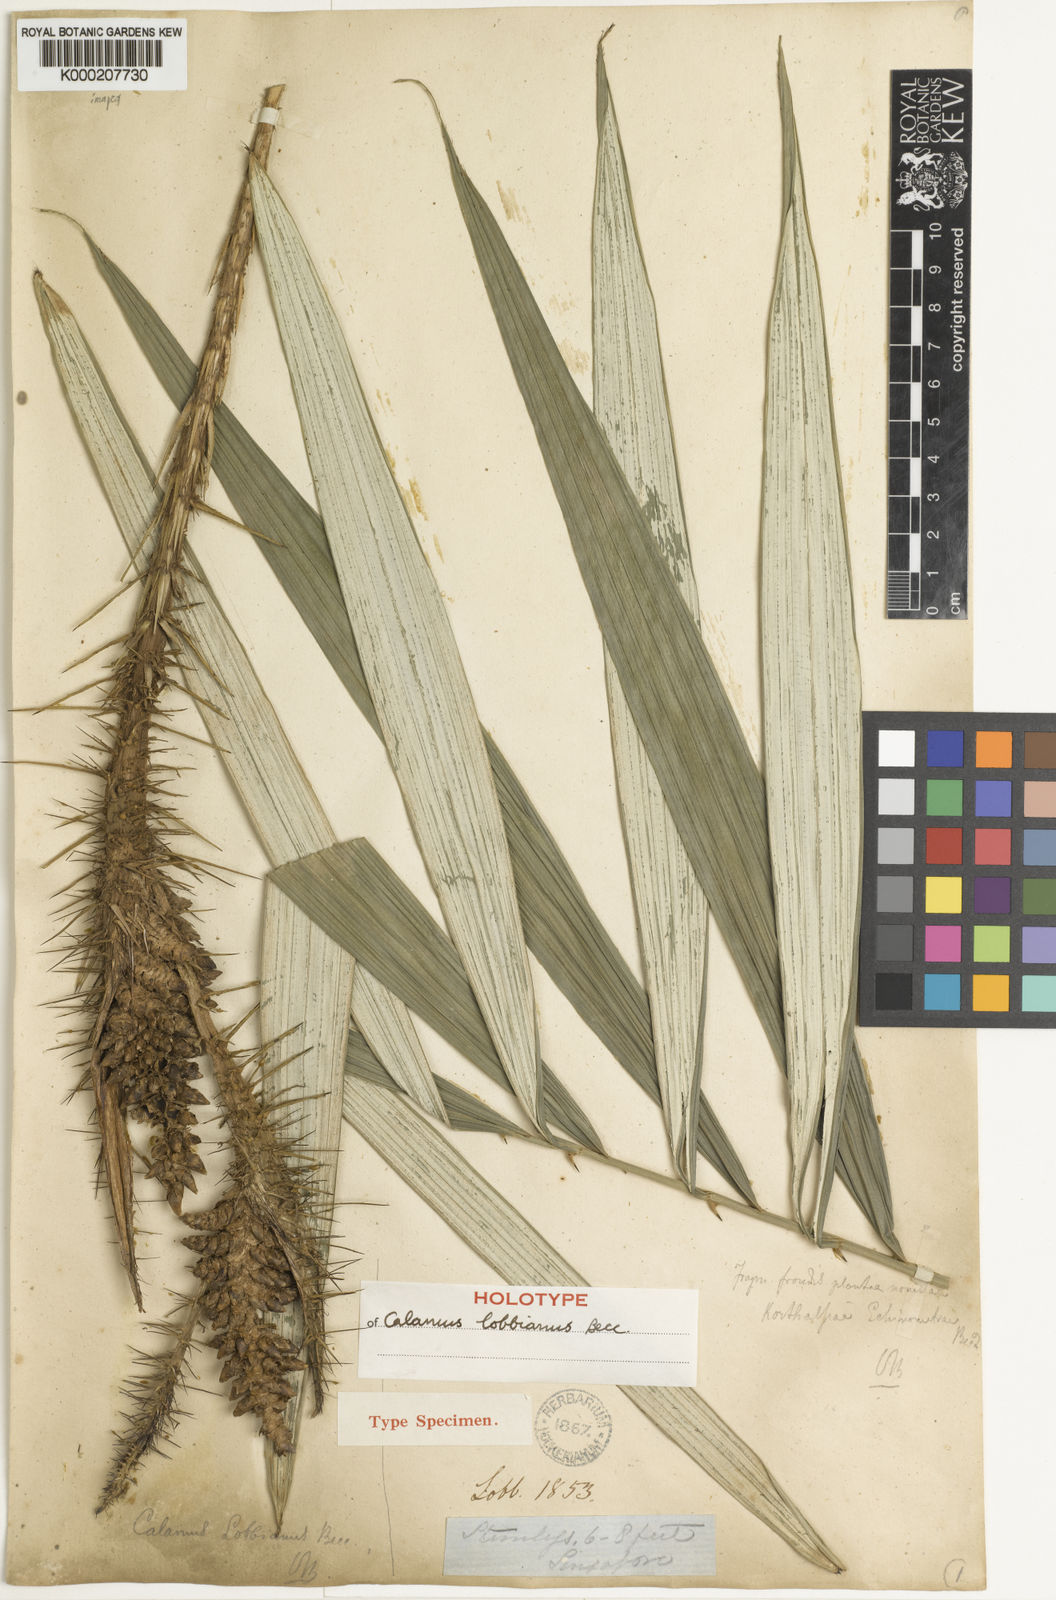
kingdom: Plantae
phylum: Tracheophyta
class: Liliopsida
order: Arecales
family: Arecaceae
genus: Calamus
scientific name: Calamus lobbianus
